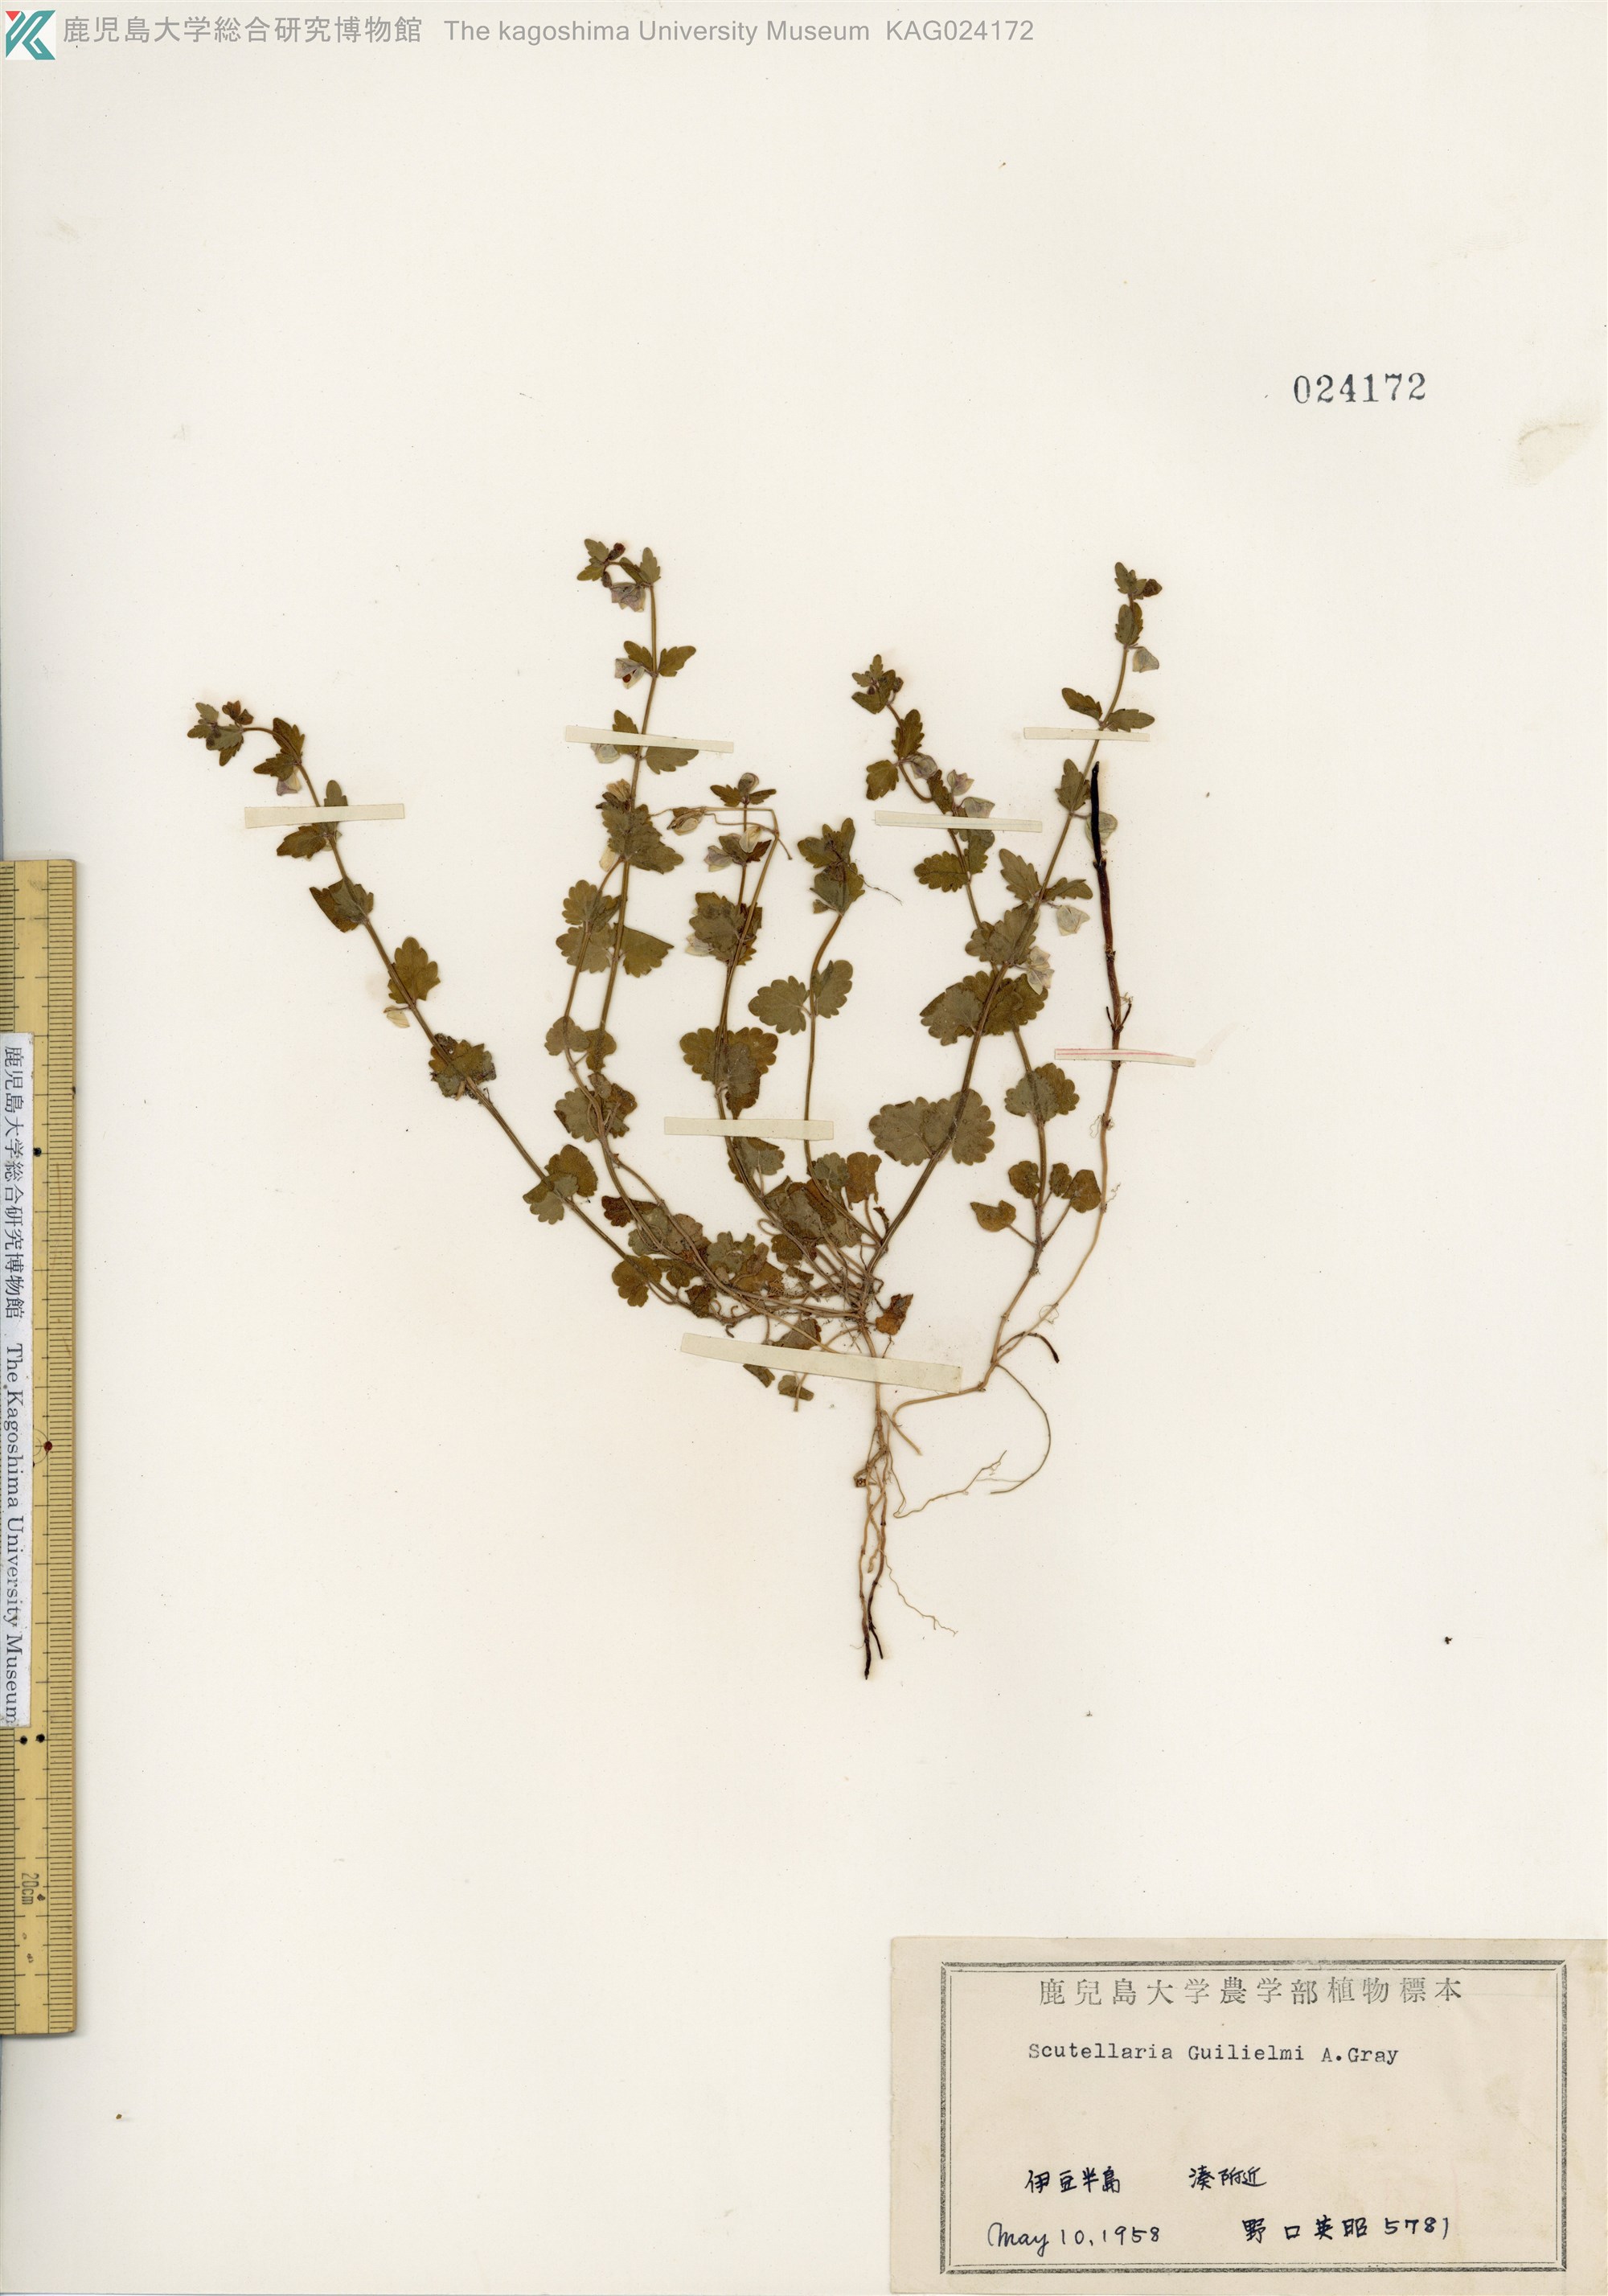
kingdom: Plantae
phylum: Tracheophyta
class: Magnoliopsida
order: Lamiales
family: Lamiaceae
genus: Scutellaria
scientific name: Scutellaria guilielmi
